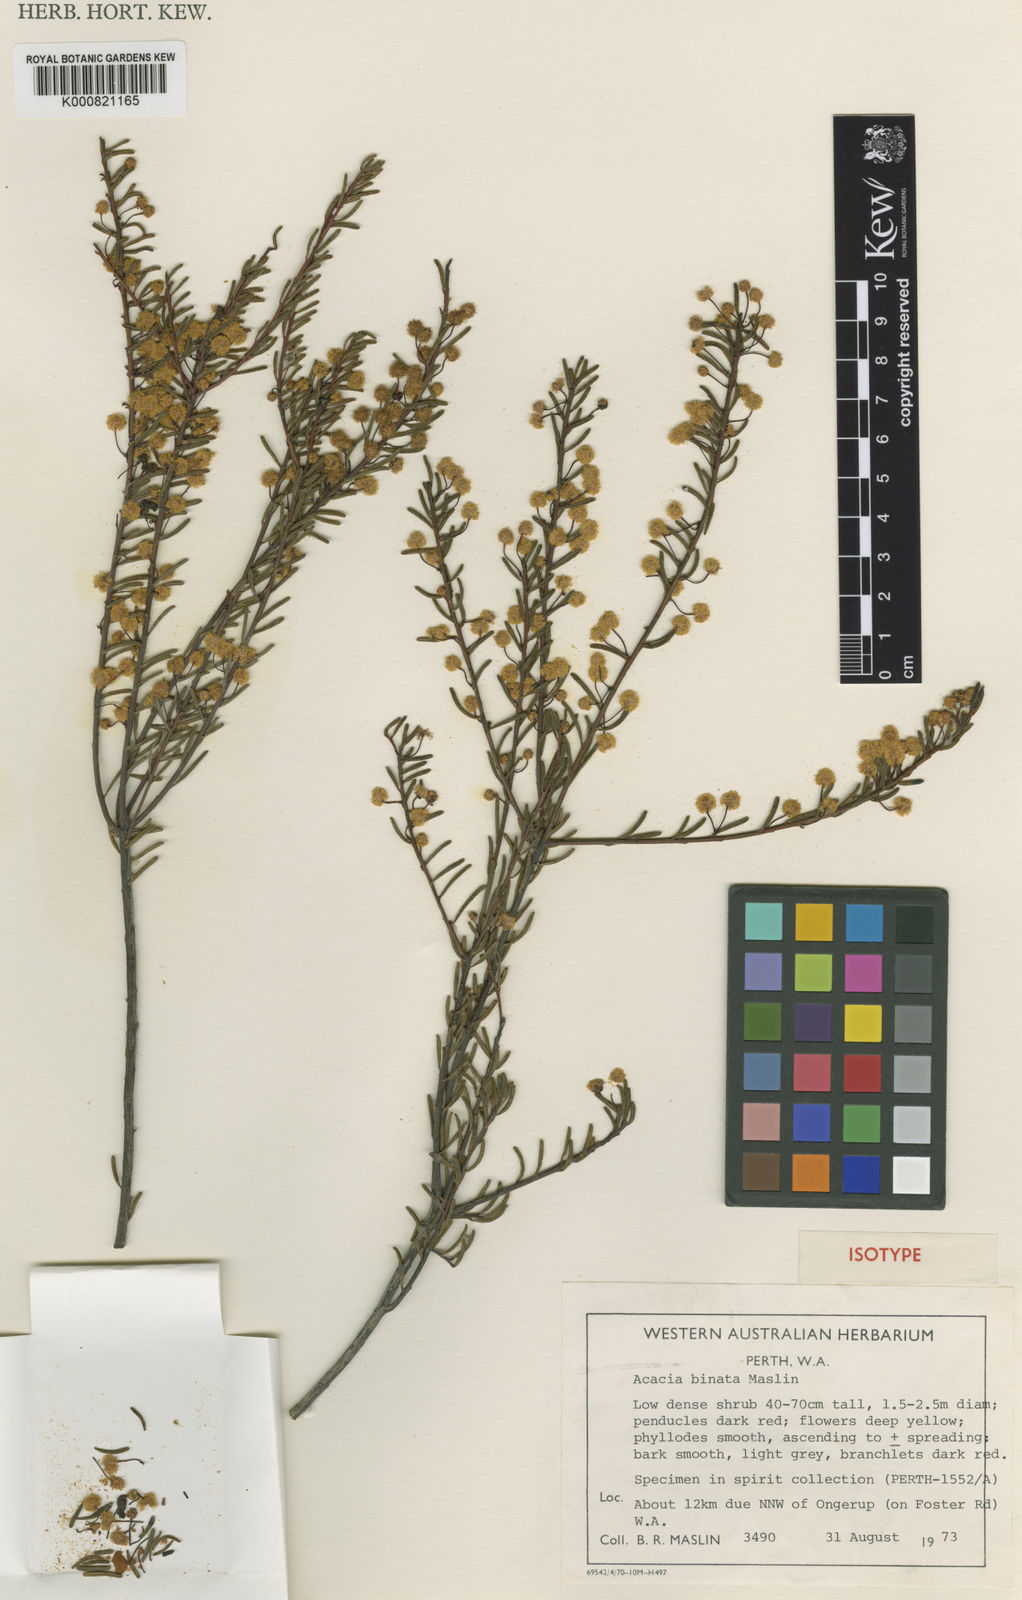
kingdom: Plantae
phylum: Tracheophyta
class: Magnoliopsida
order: Fabales
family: Fabaceae
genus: Acacia
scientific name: Acacia binata
